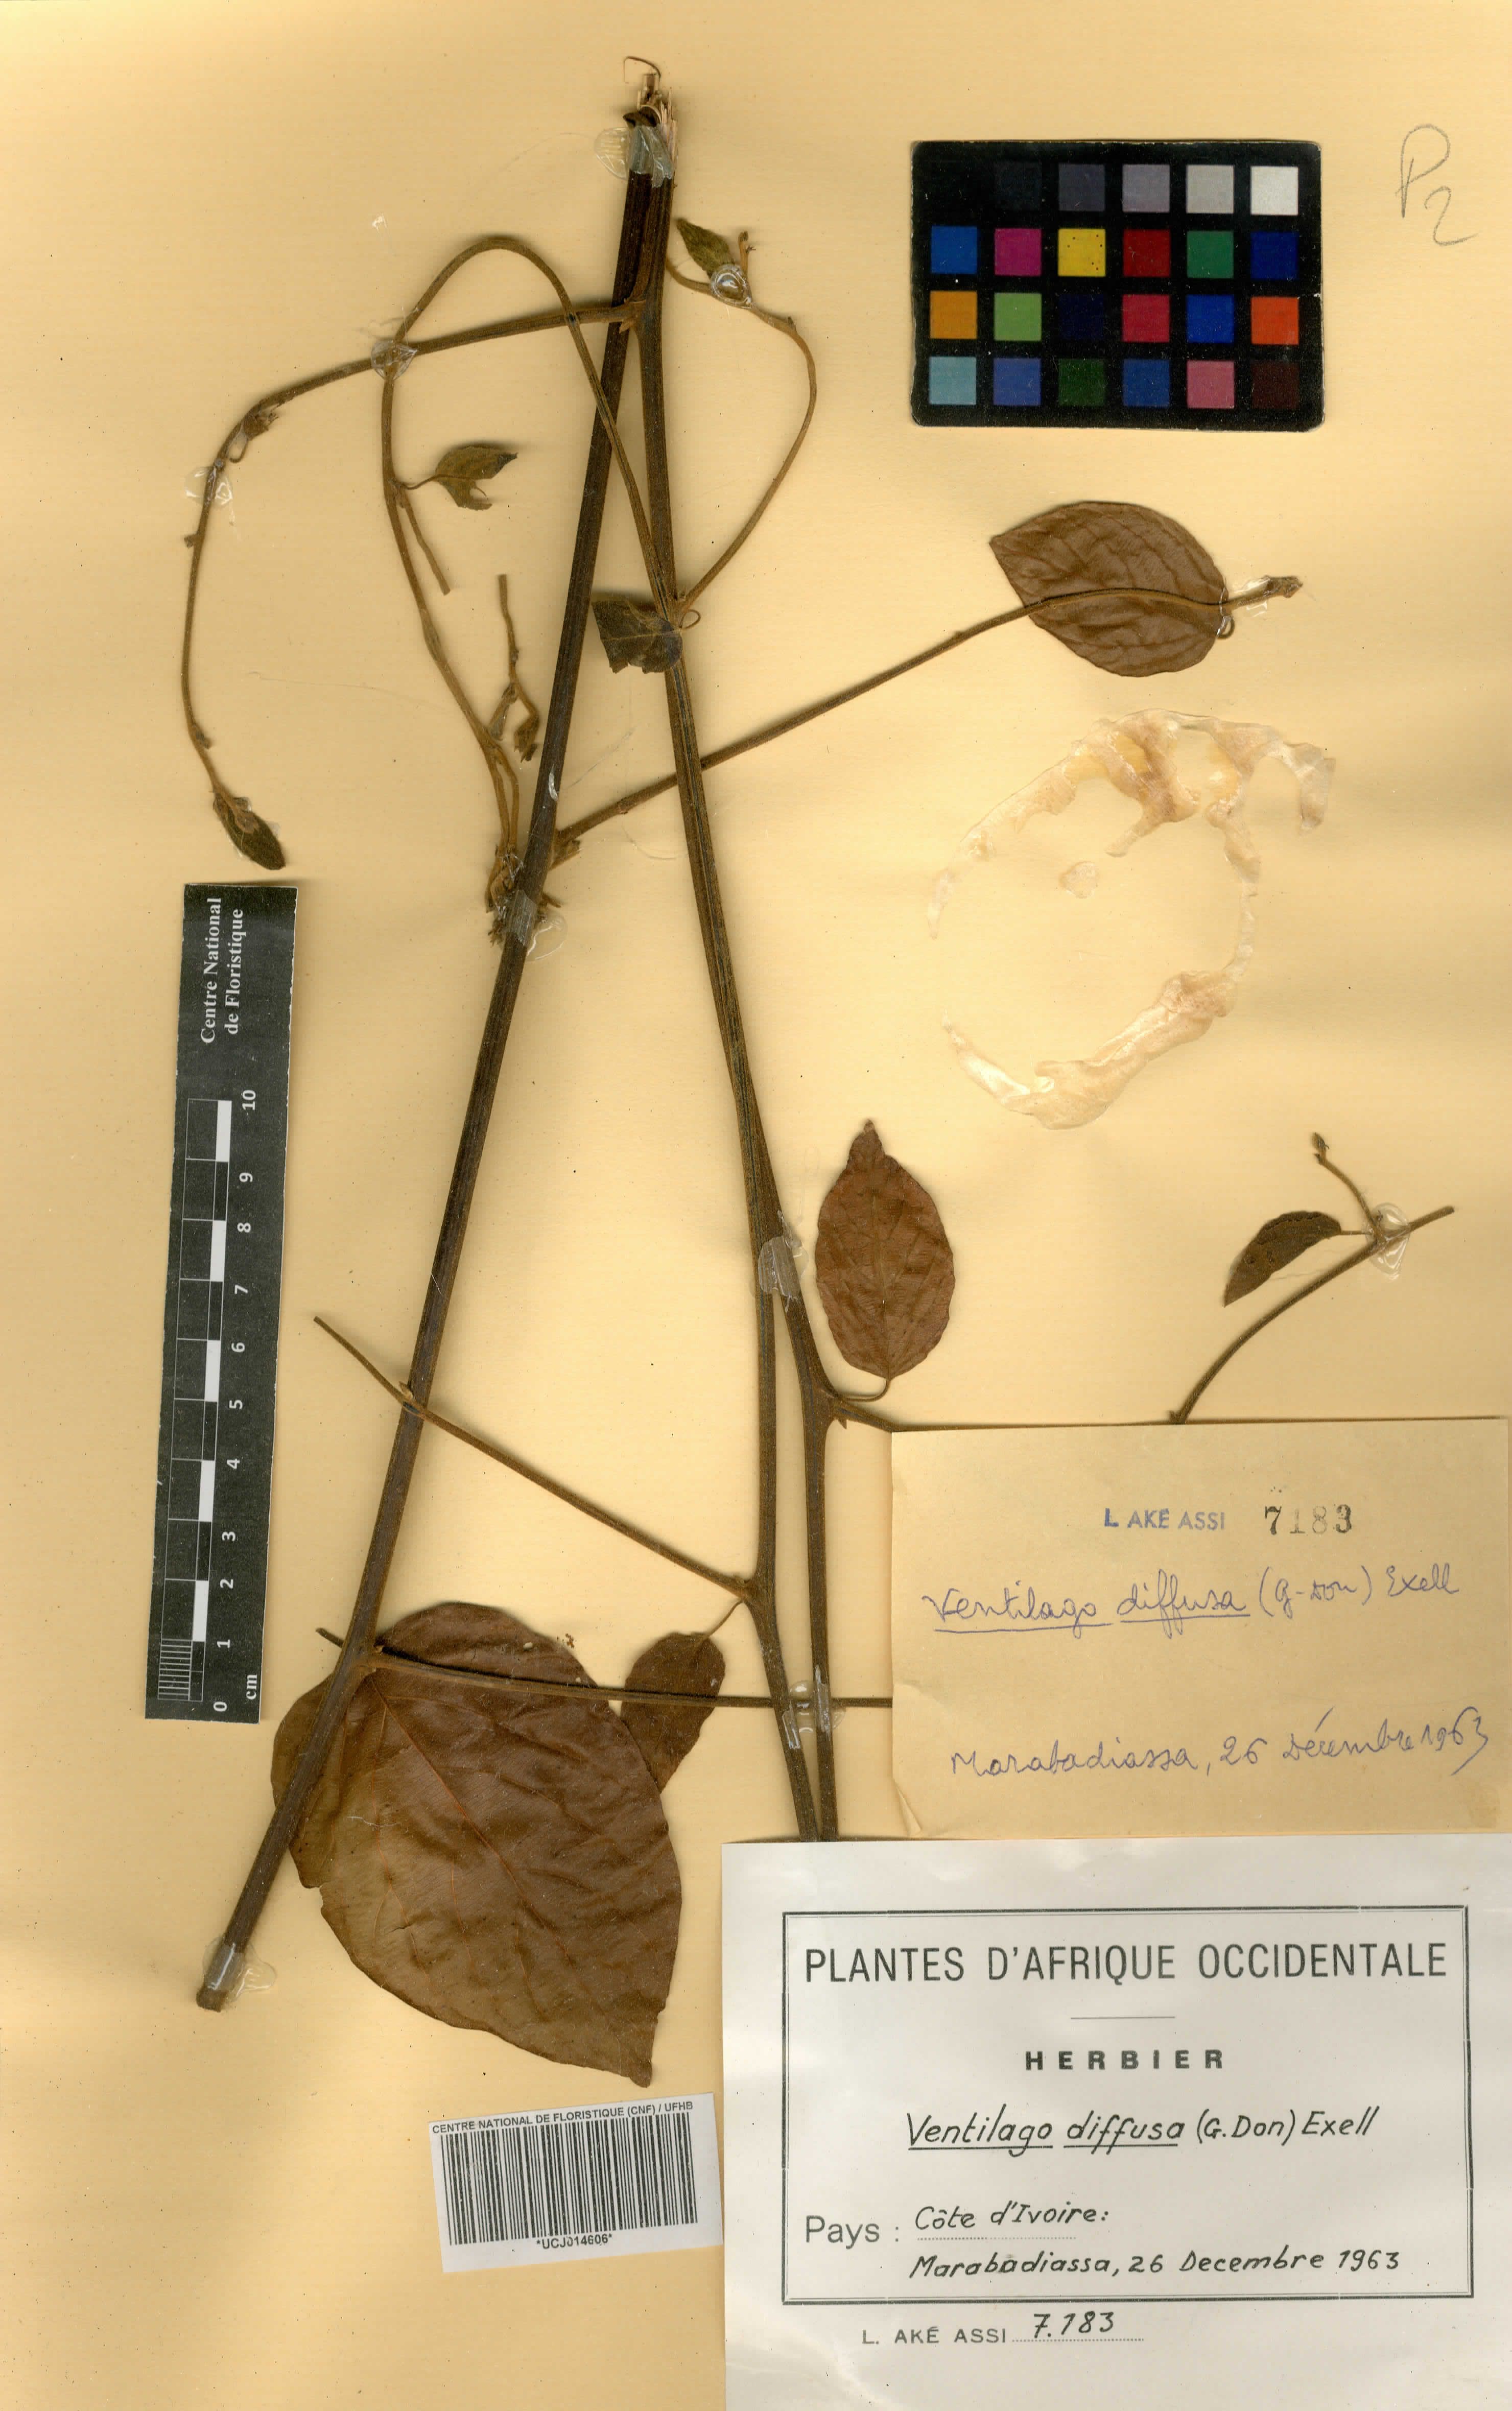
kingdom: Plantae
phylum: Tracheophyta
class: Magnoliopsida
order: Rosales
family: Rhamnaceae
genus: Ventilago
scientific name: Ventilago diffusa
